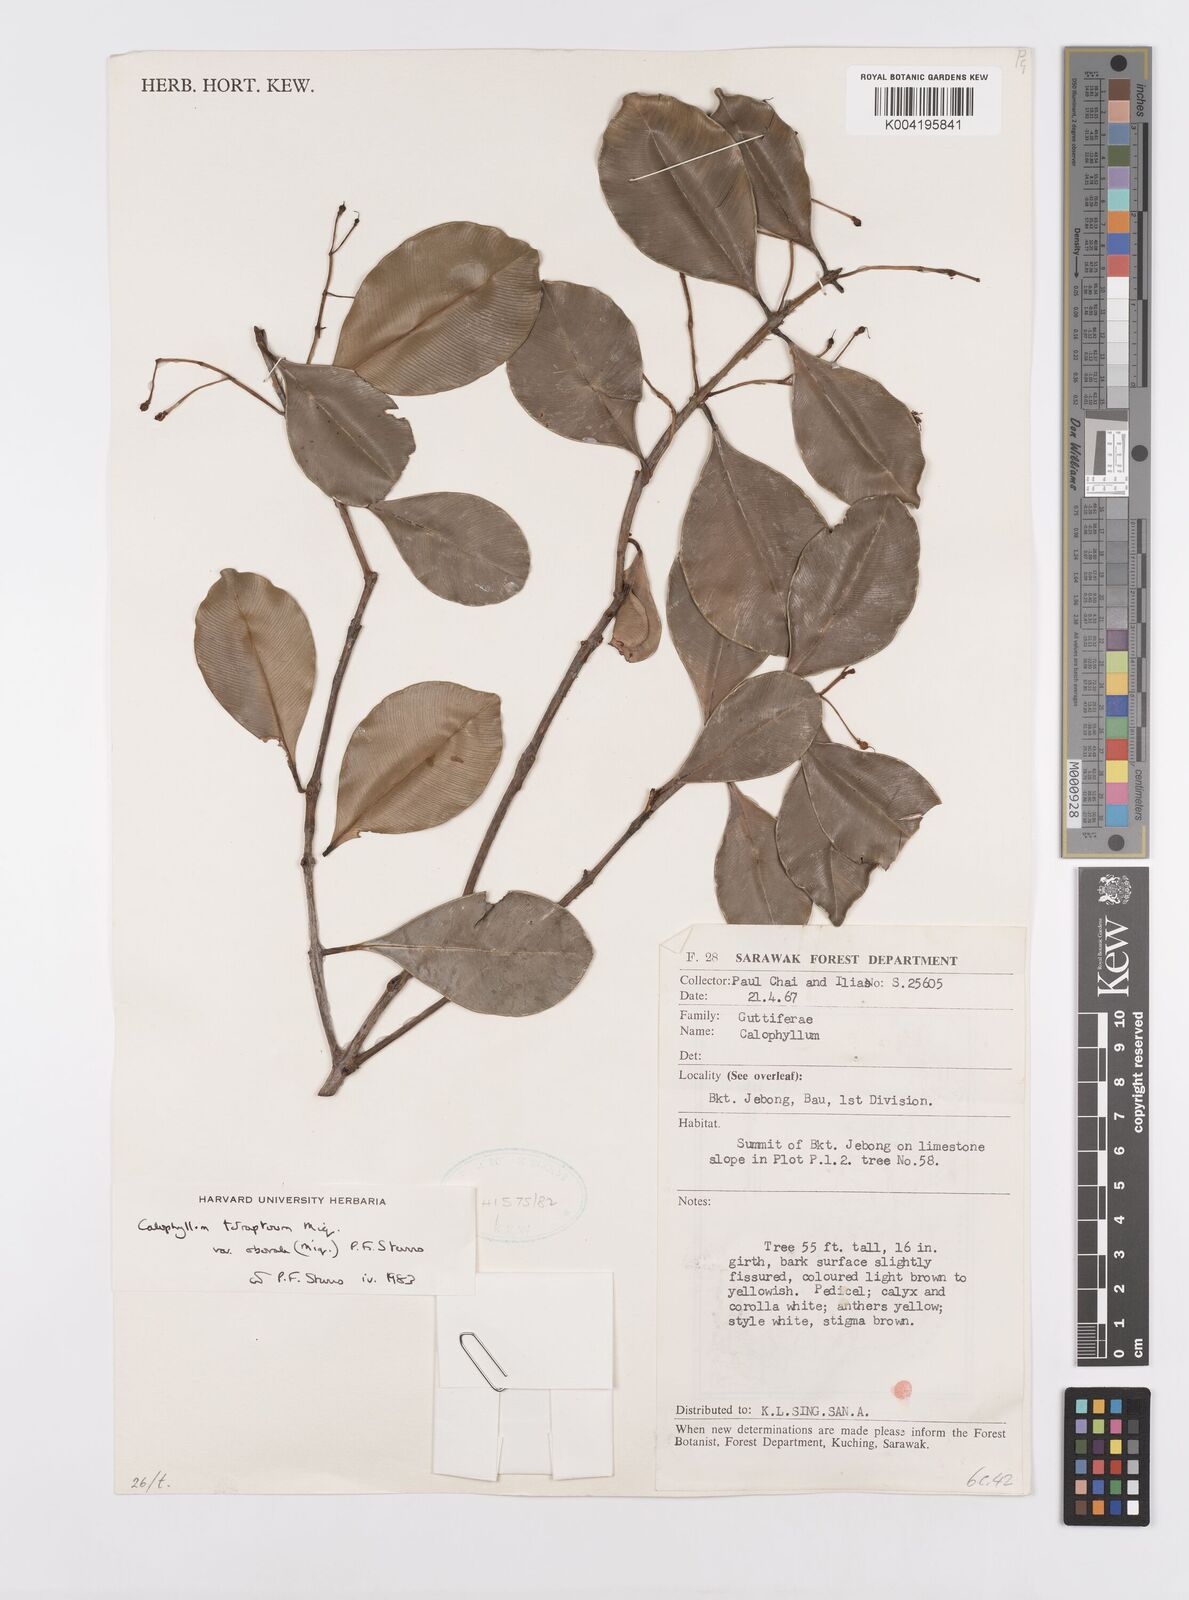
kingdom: Plantae
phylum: Tracheophyta
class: Magnoliopsida
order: Malpighiales
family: Calophyllaceae
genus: Calophyllum
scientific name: Calophyllum tetrapterum
